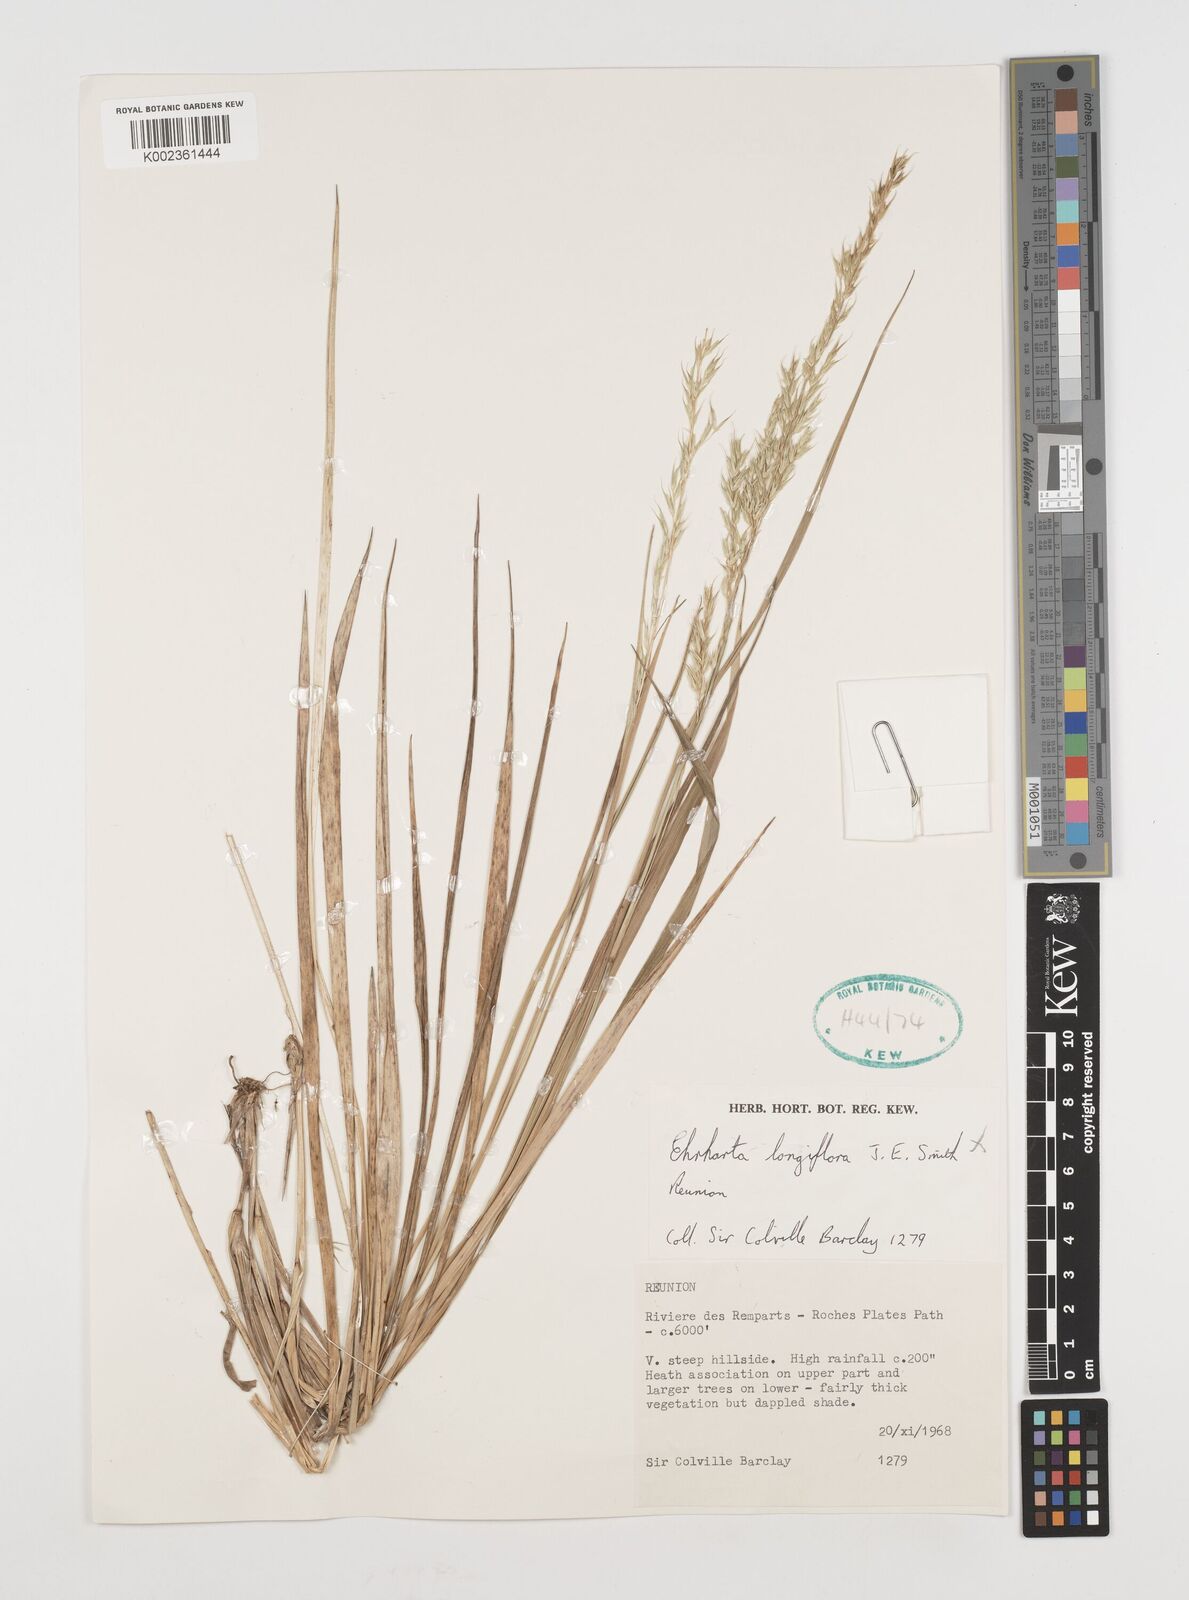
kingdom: Plantae
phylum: Tracheophyta
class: Liliopsida
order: Poales
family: Poaceae
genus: Ehrharta
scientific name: Ehrharta
